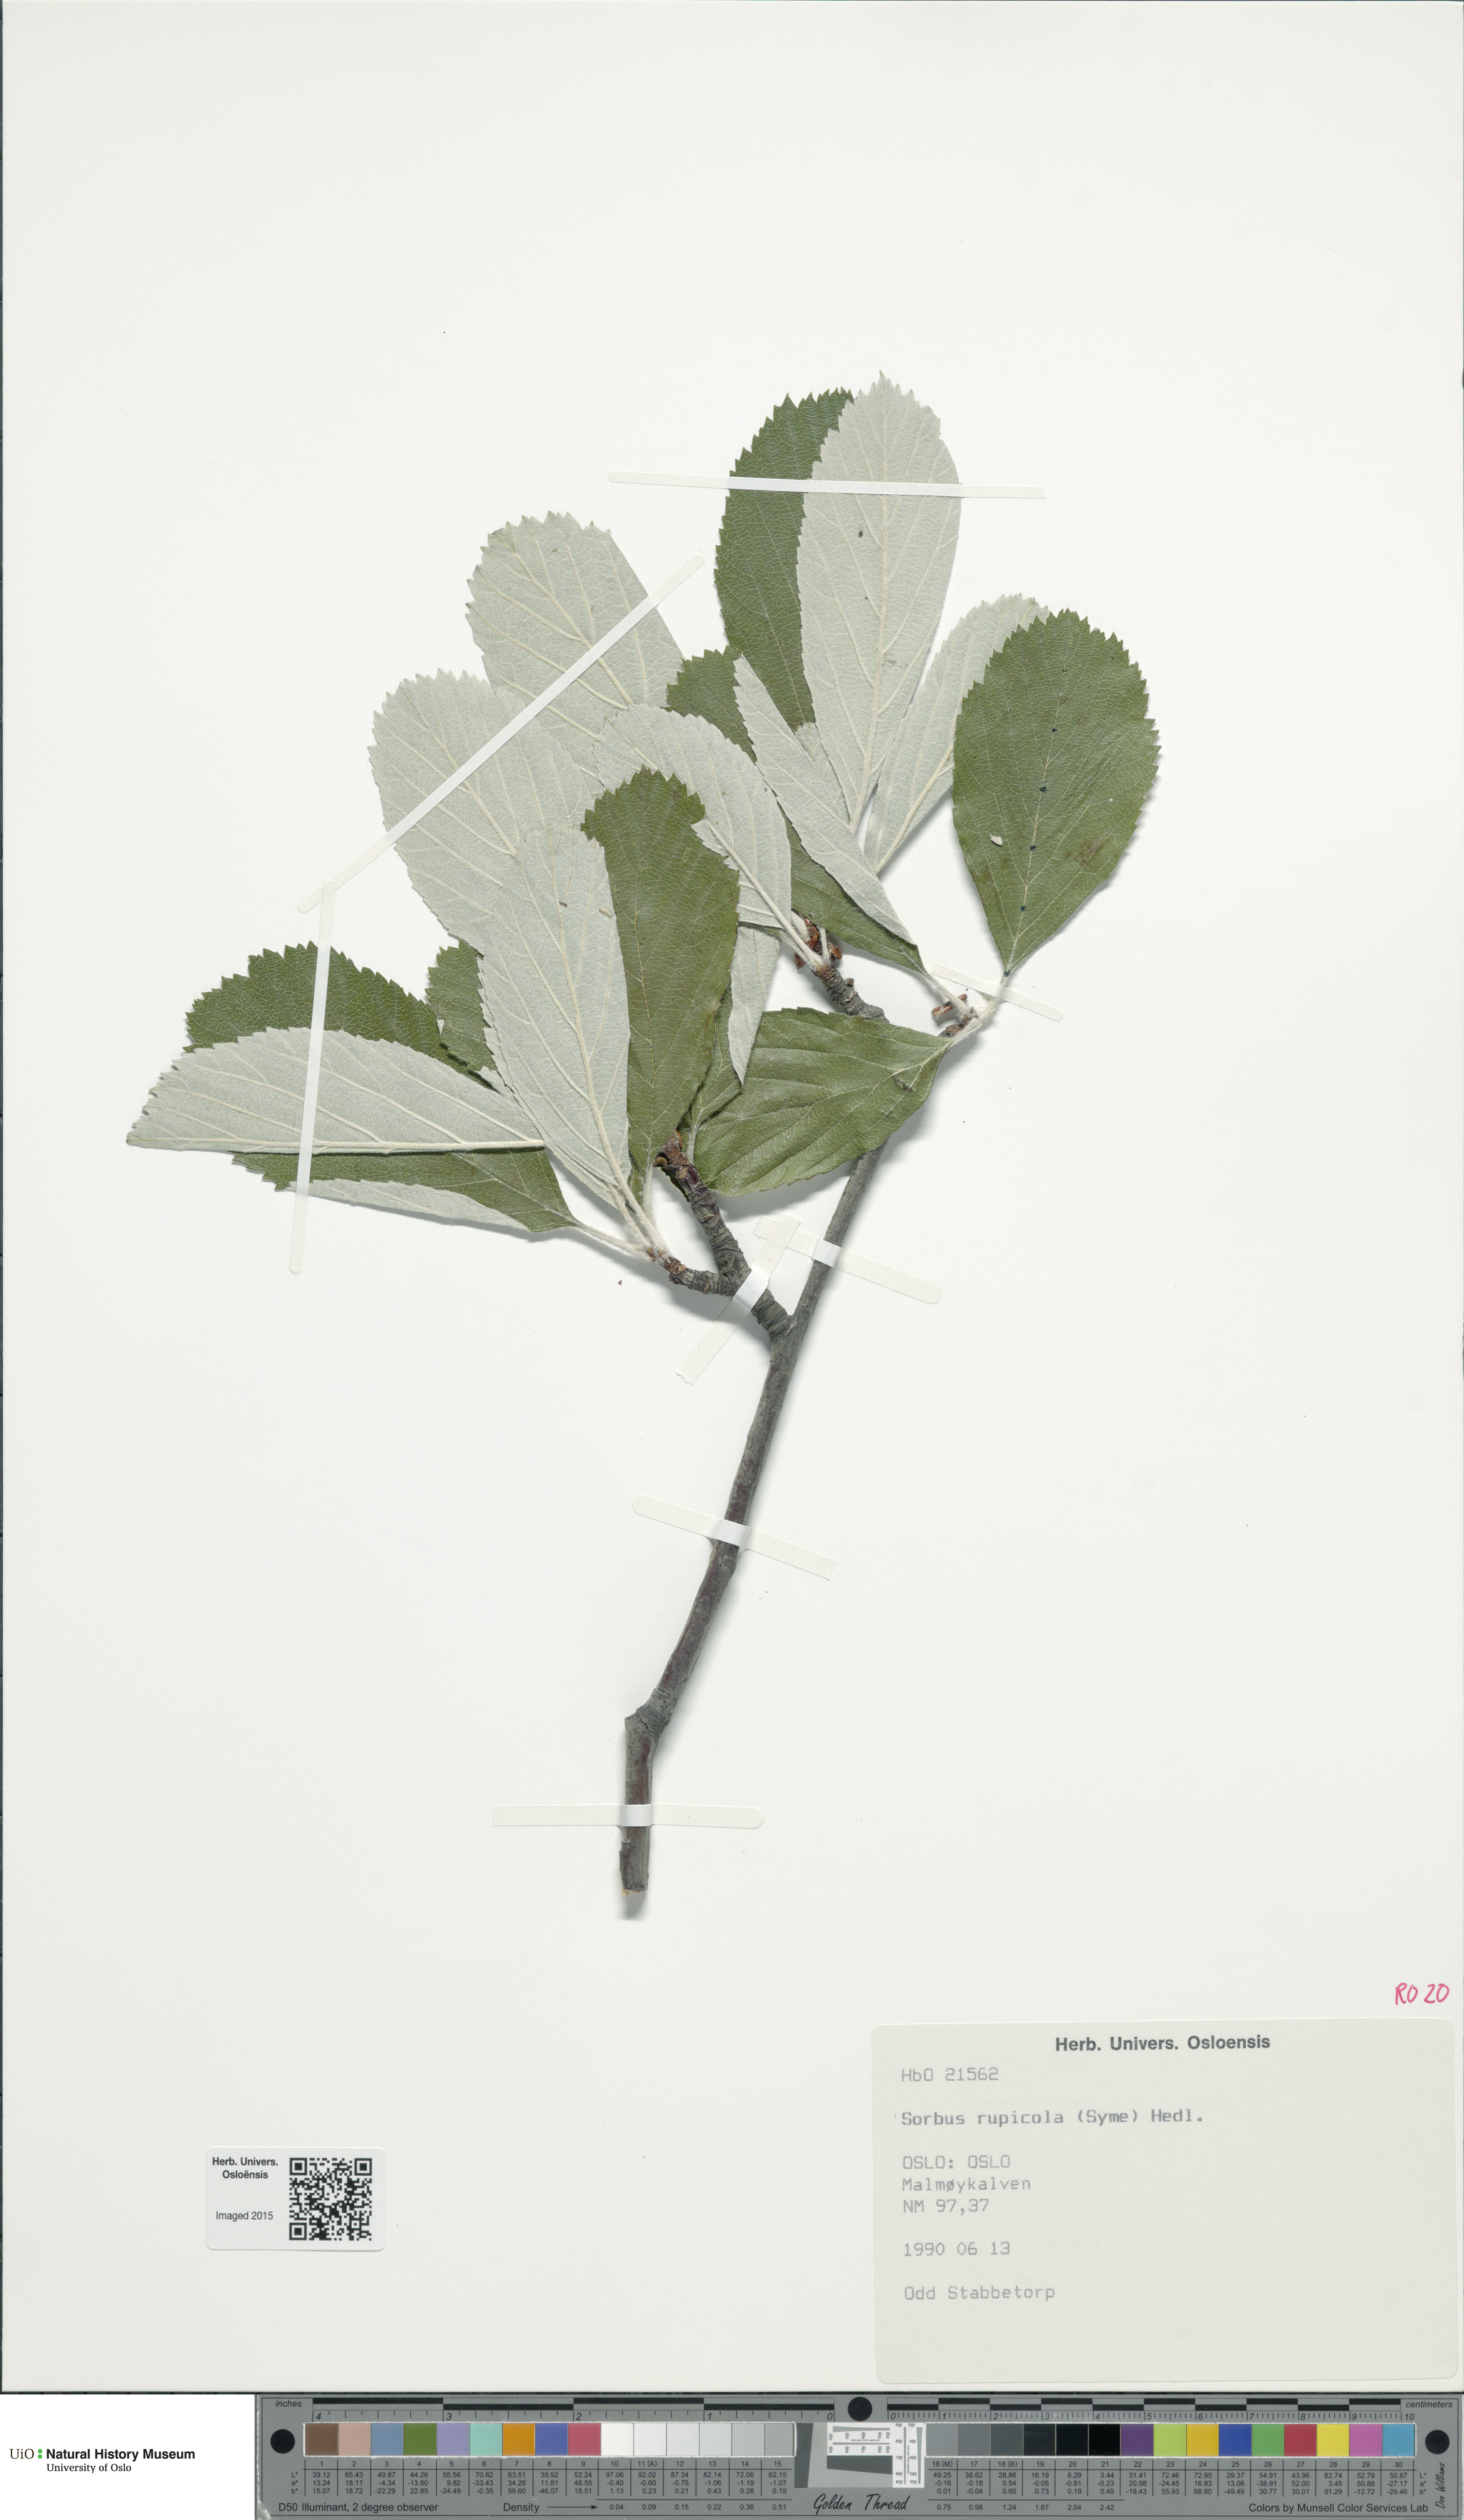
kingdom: Plantae
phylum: Tracheophyta
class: Magnoliopsida
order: Rosales
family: Rosaceae
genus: Aria
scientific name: Aria rupicola
